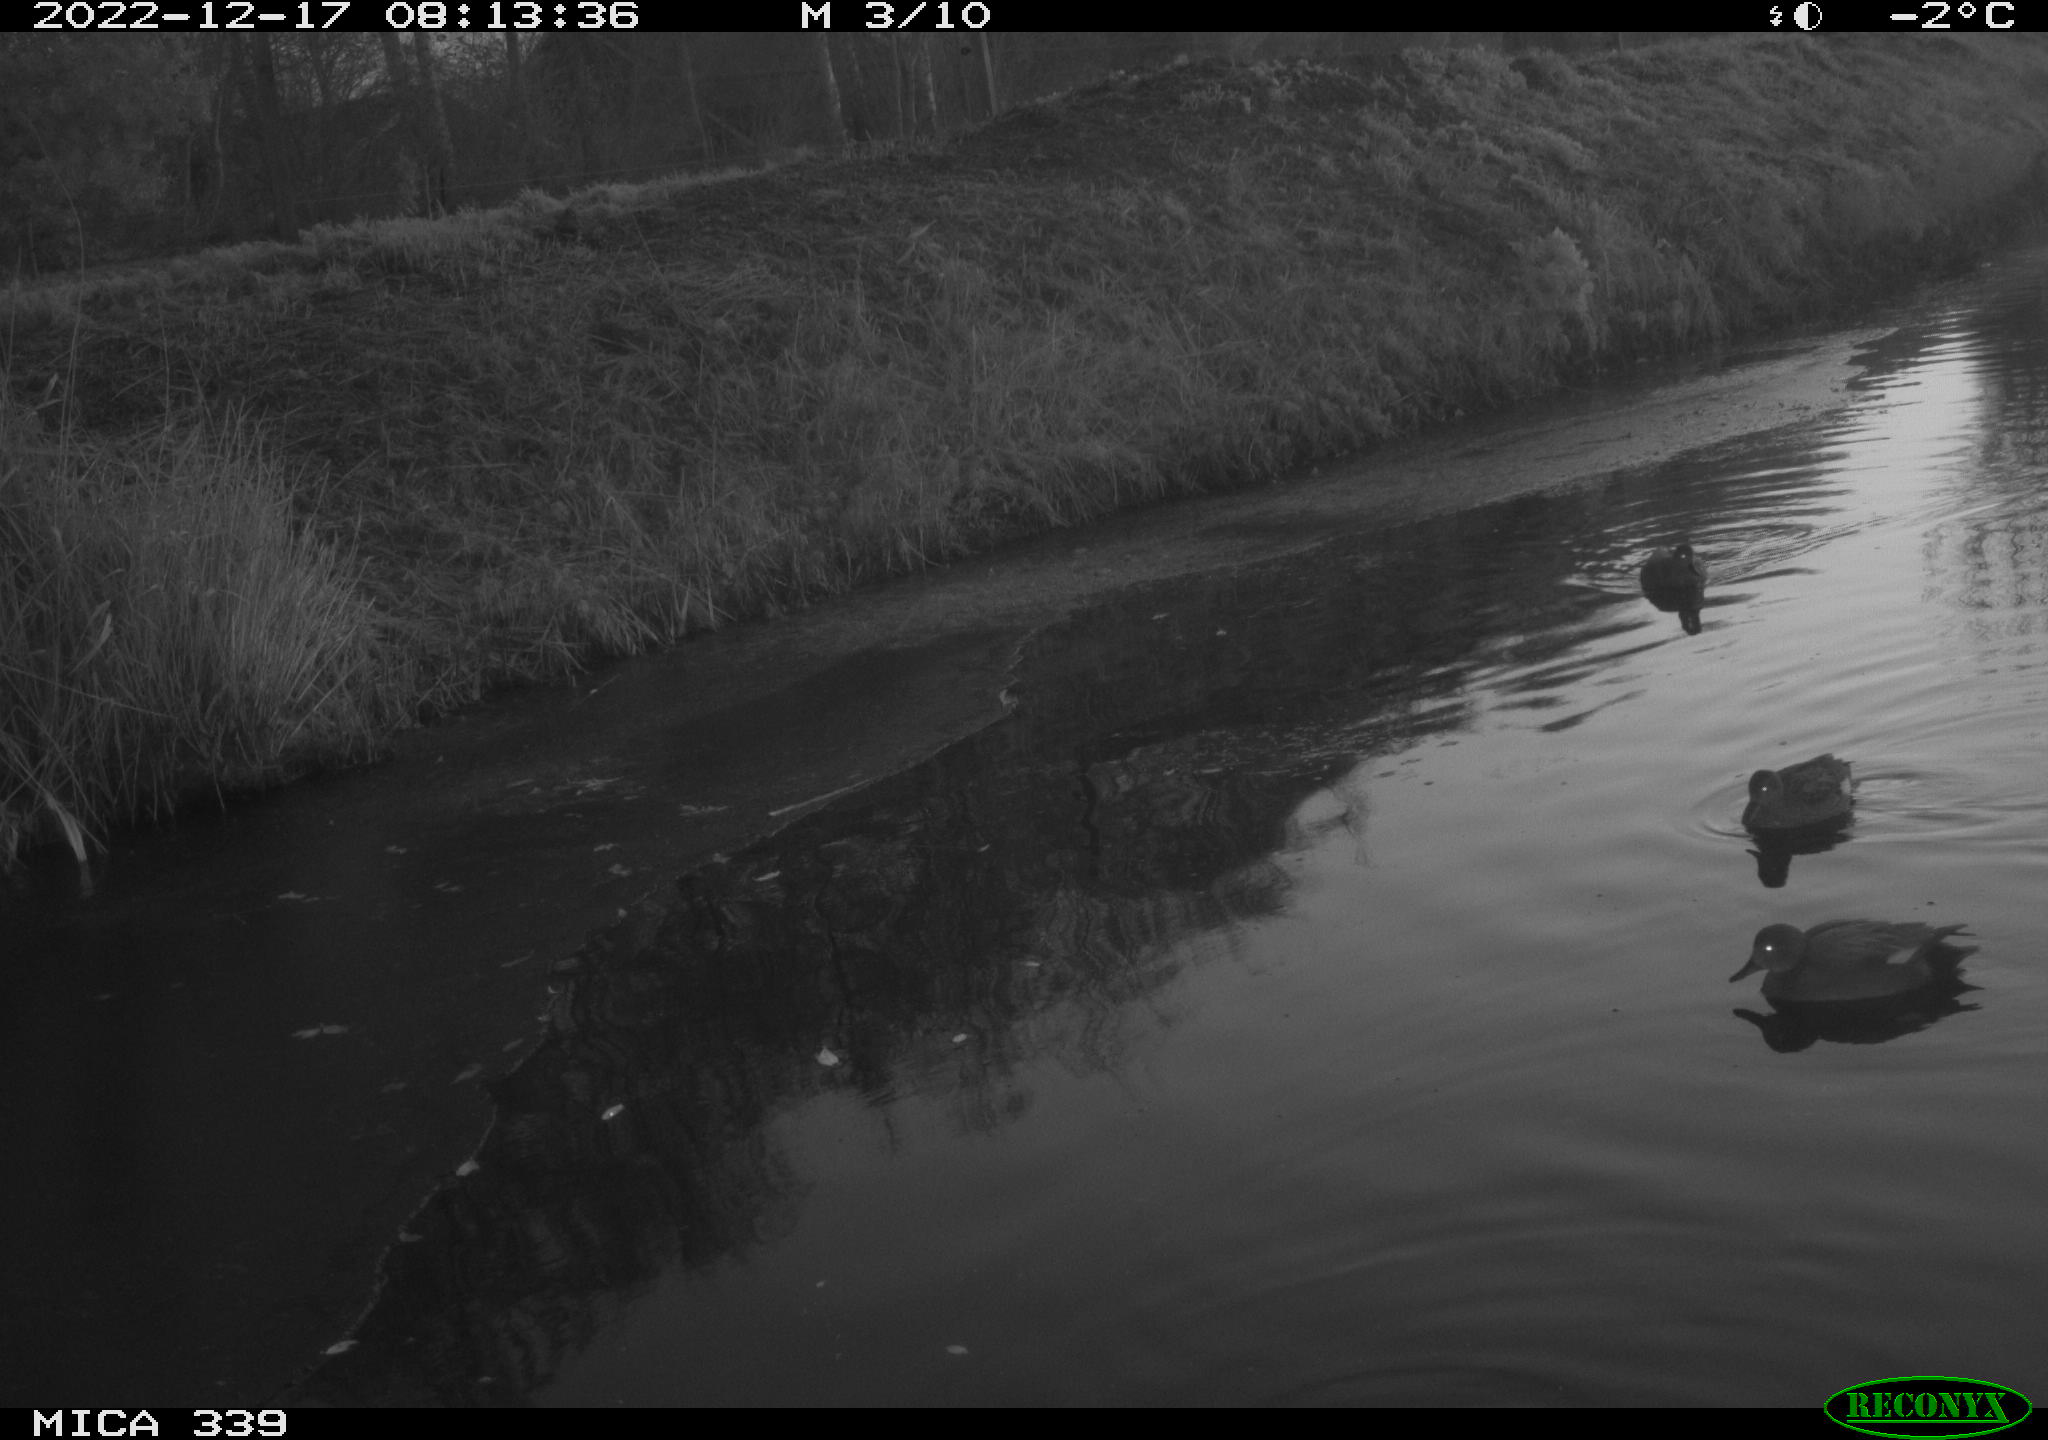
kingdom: Animalia
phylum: Chordata
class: Aves
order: Anseriformes
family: Anatidae
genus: Anas
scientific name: Anas
